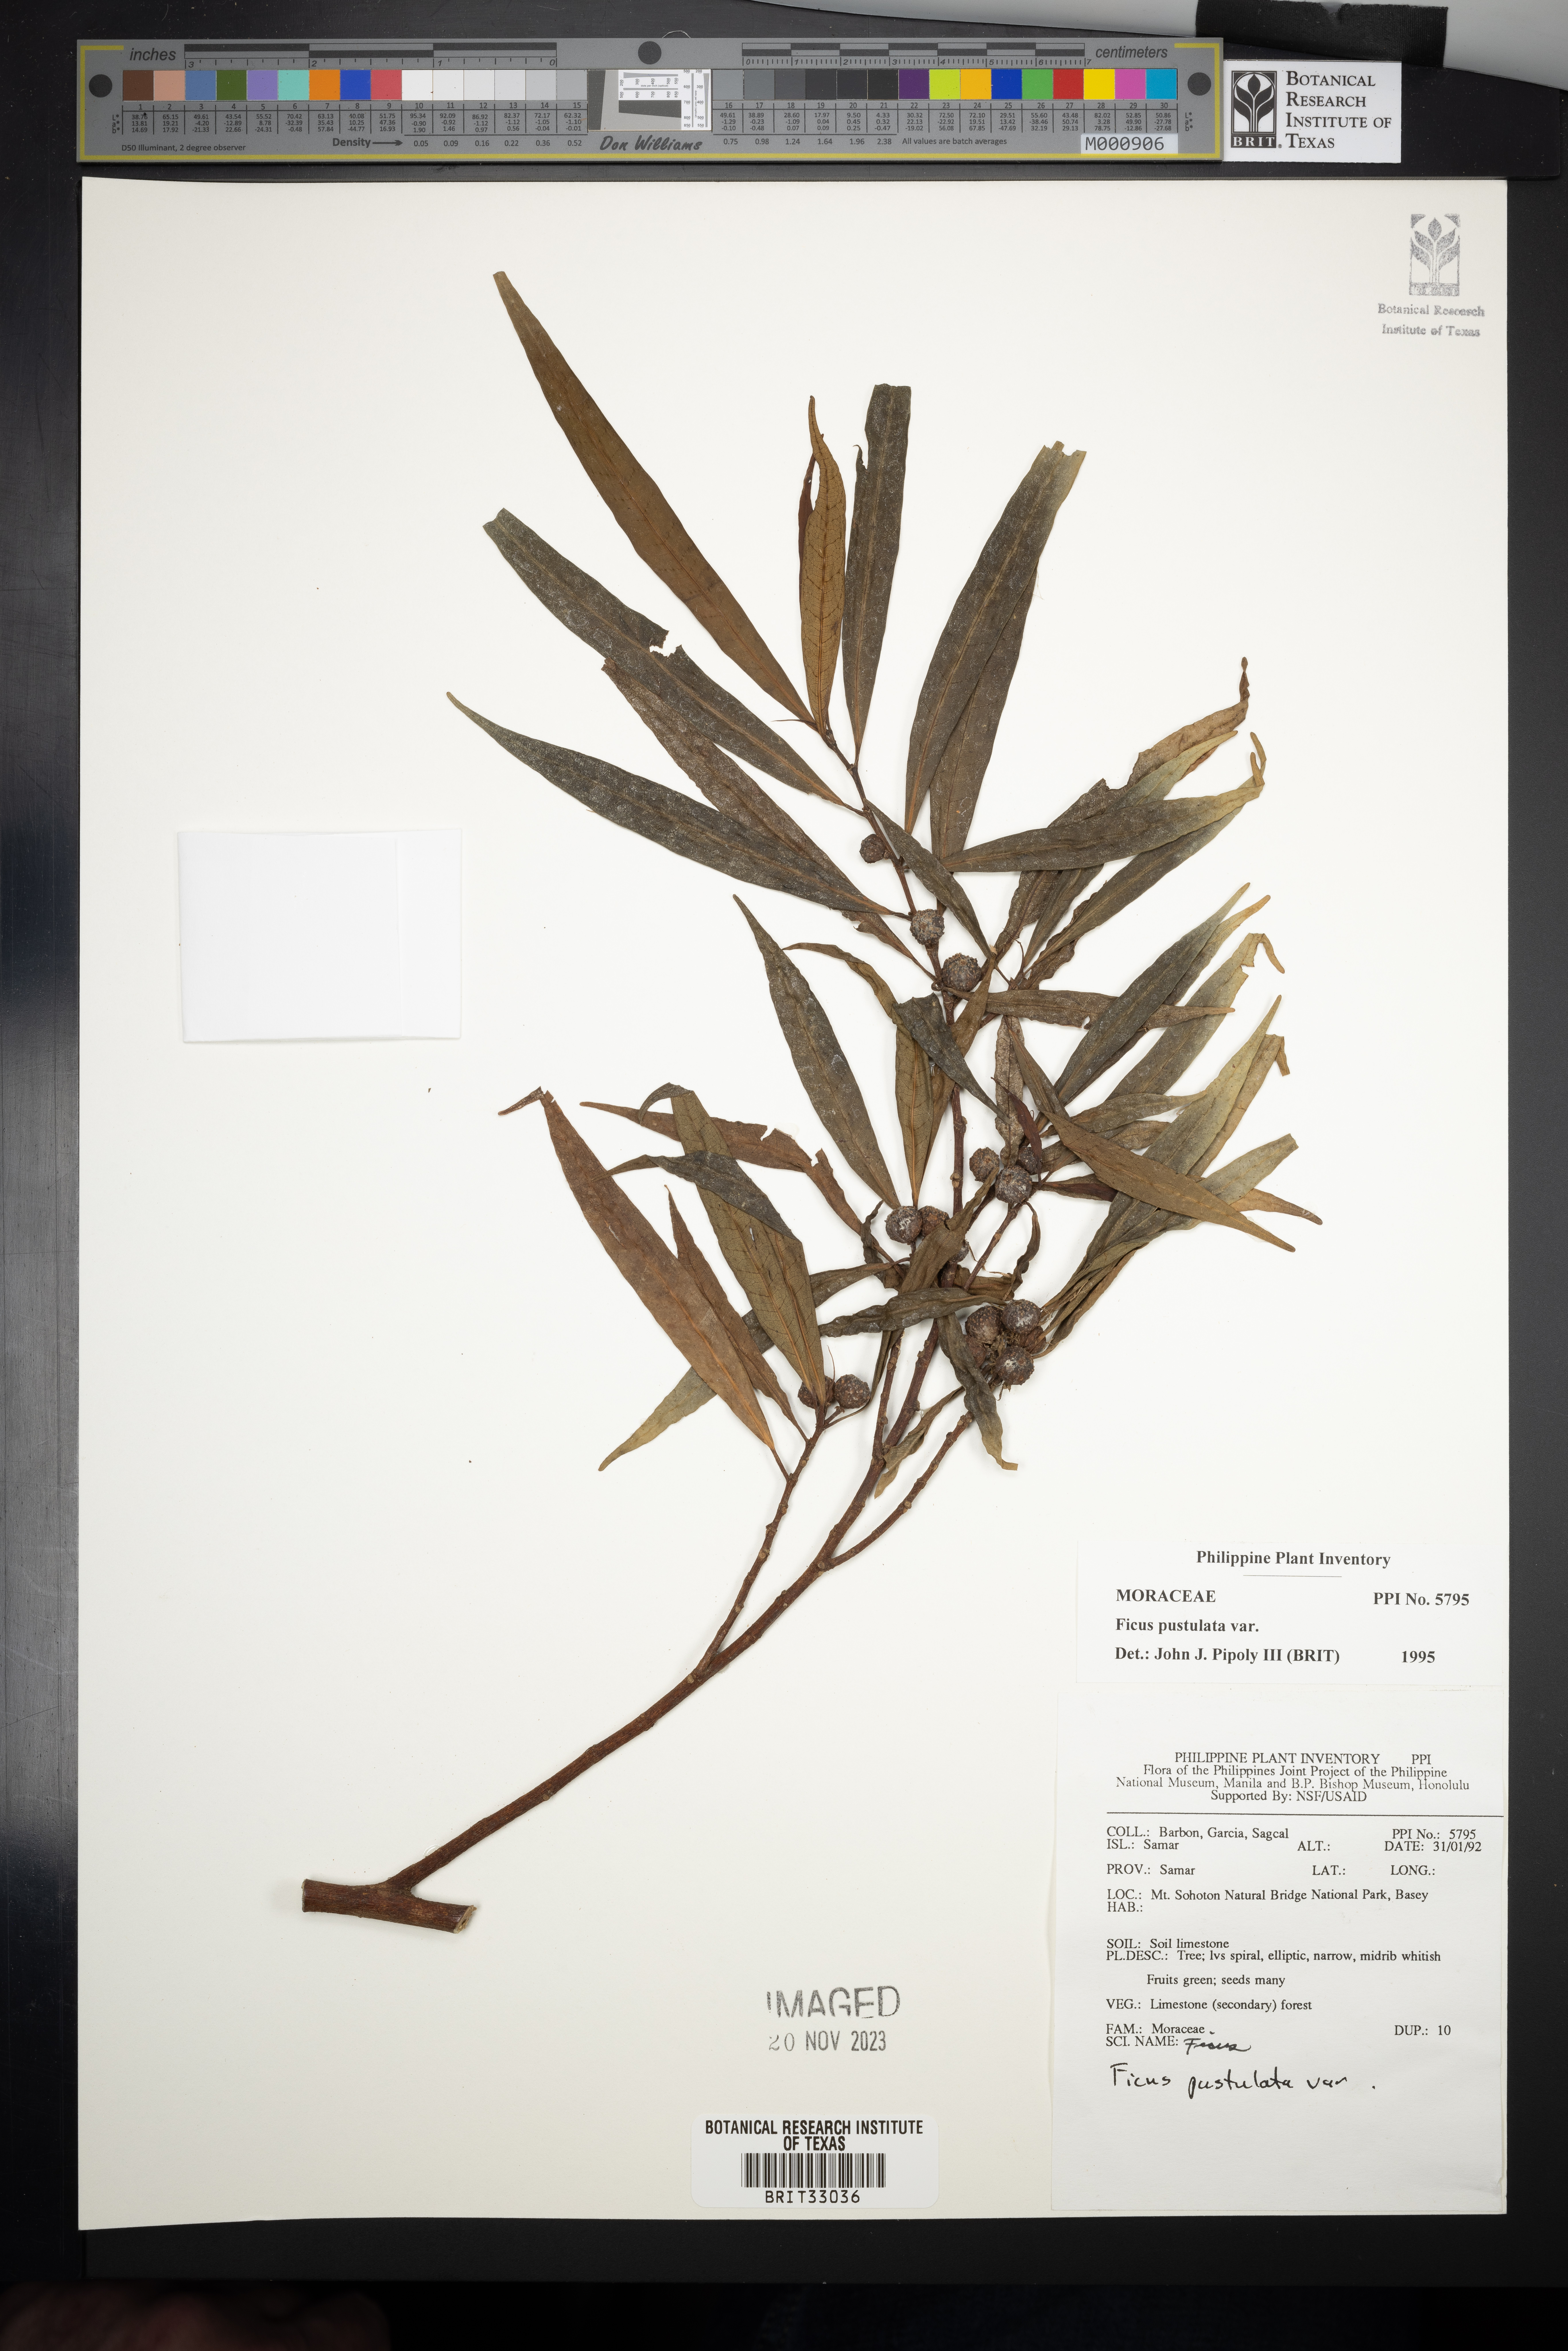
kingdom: Plantae
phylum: Tracheophyta
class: Magnoliopsida
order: Rosales
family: Moraceae
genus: Ficus
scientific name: Ficus pustulata
